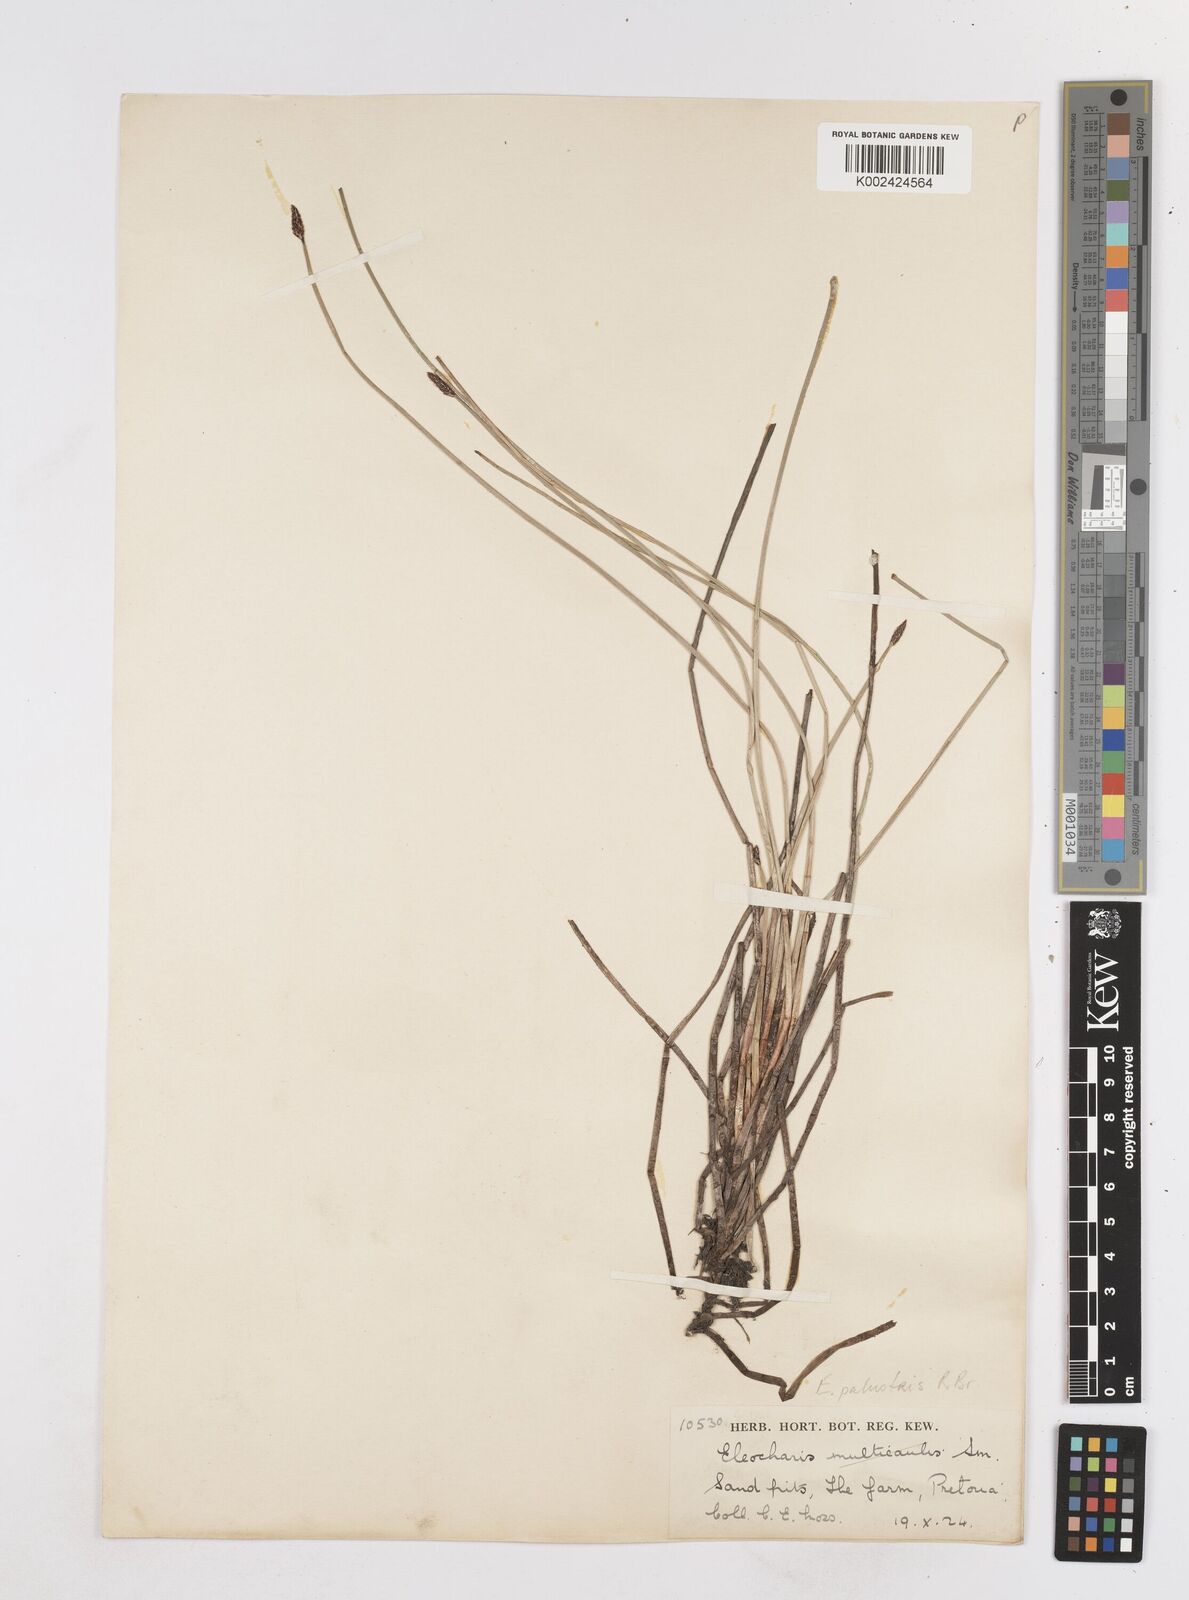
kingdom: Plantae
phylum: Tracheophyta
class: Liliopsida
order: Poales
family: Cyperaceae
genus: Eleocharis
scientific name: Eleocharis palustris
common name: Common spike-rush
